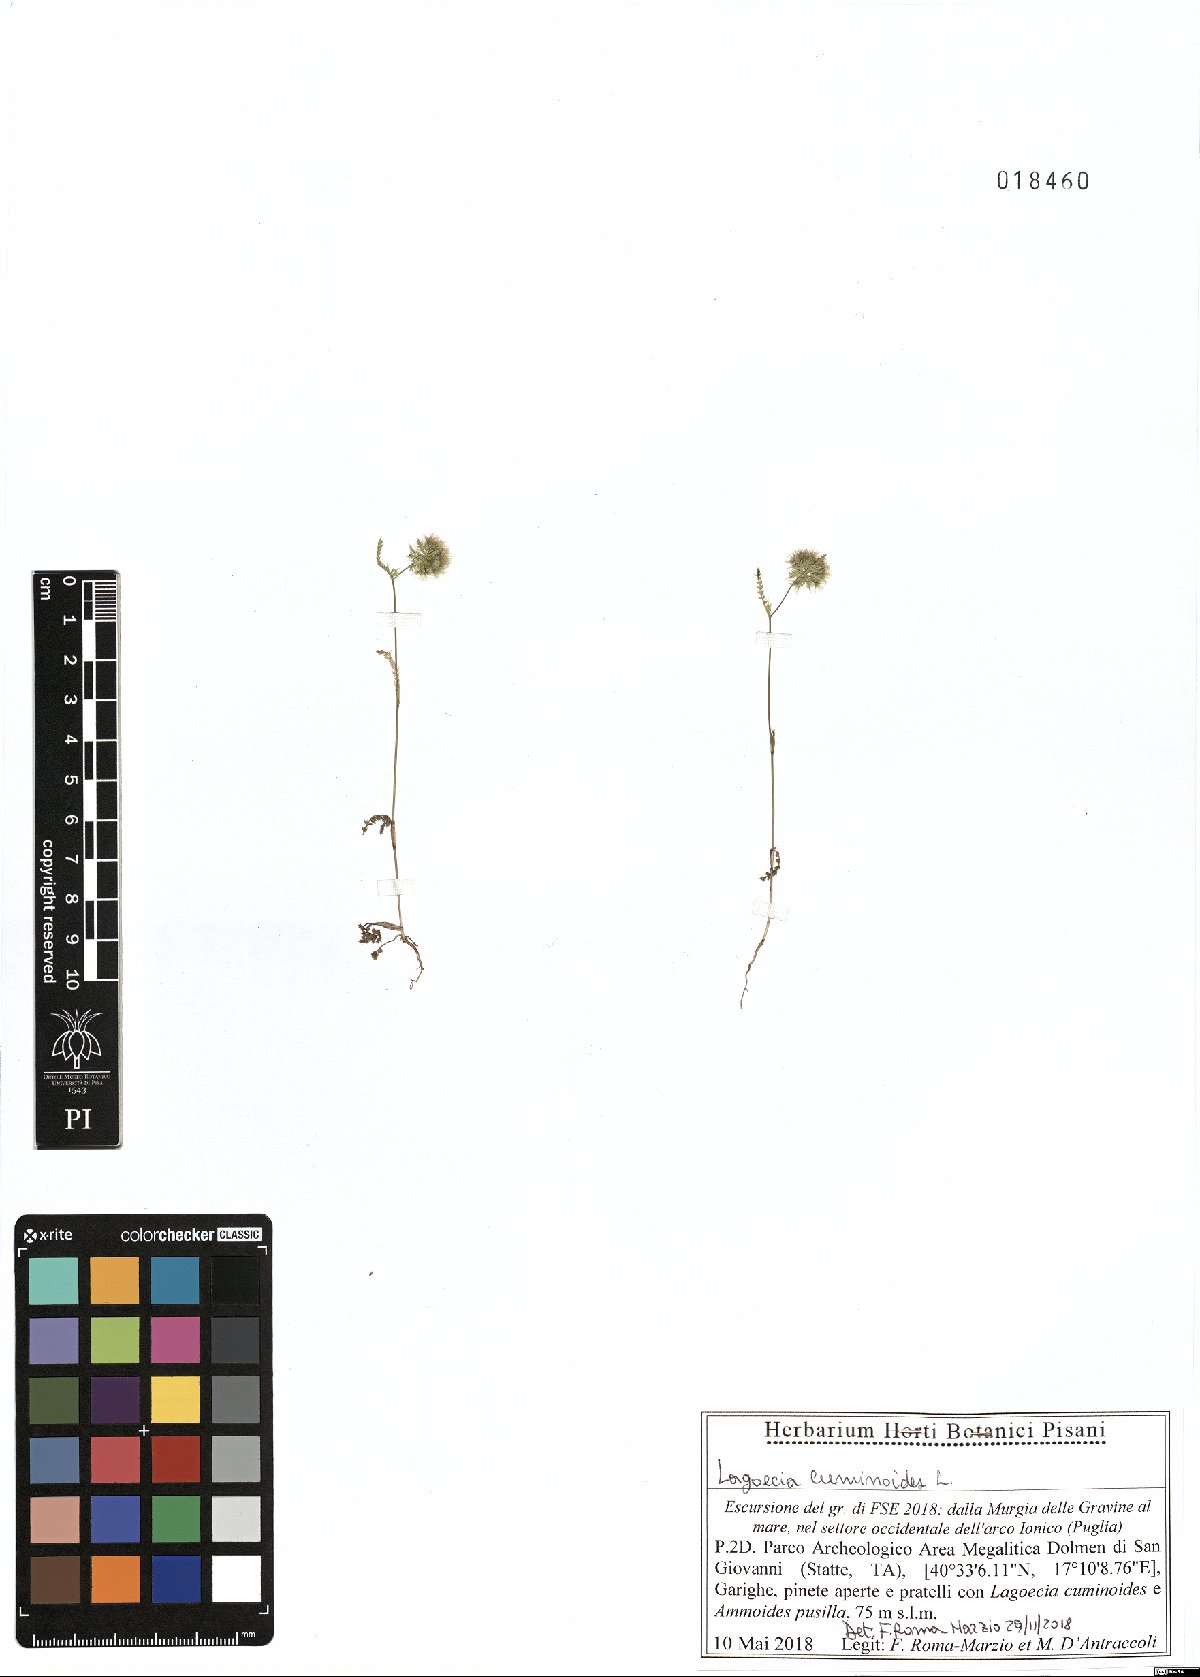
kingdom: Plantae
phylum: Tracheophyta
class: Magnoliopsida
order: Apiales
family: Apiaceae
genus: Lagoecia
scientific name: Lagoecia cuminoides
